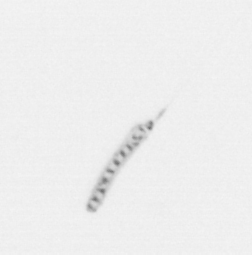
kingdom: Chromista
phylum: Ochrophyta
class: Bacillariophyceae
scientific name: Bacillariophyceae
